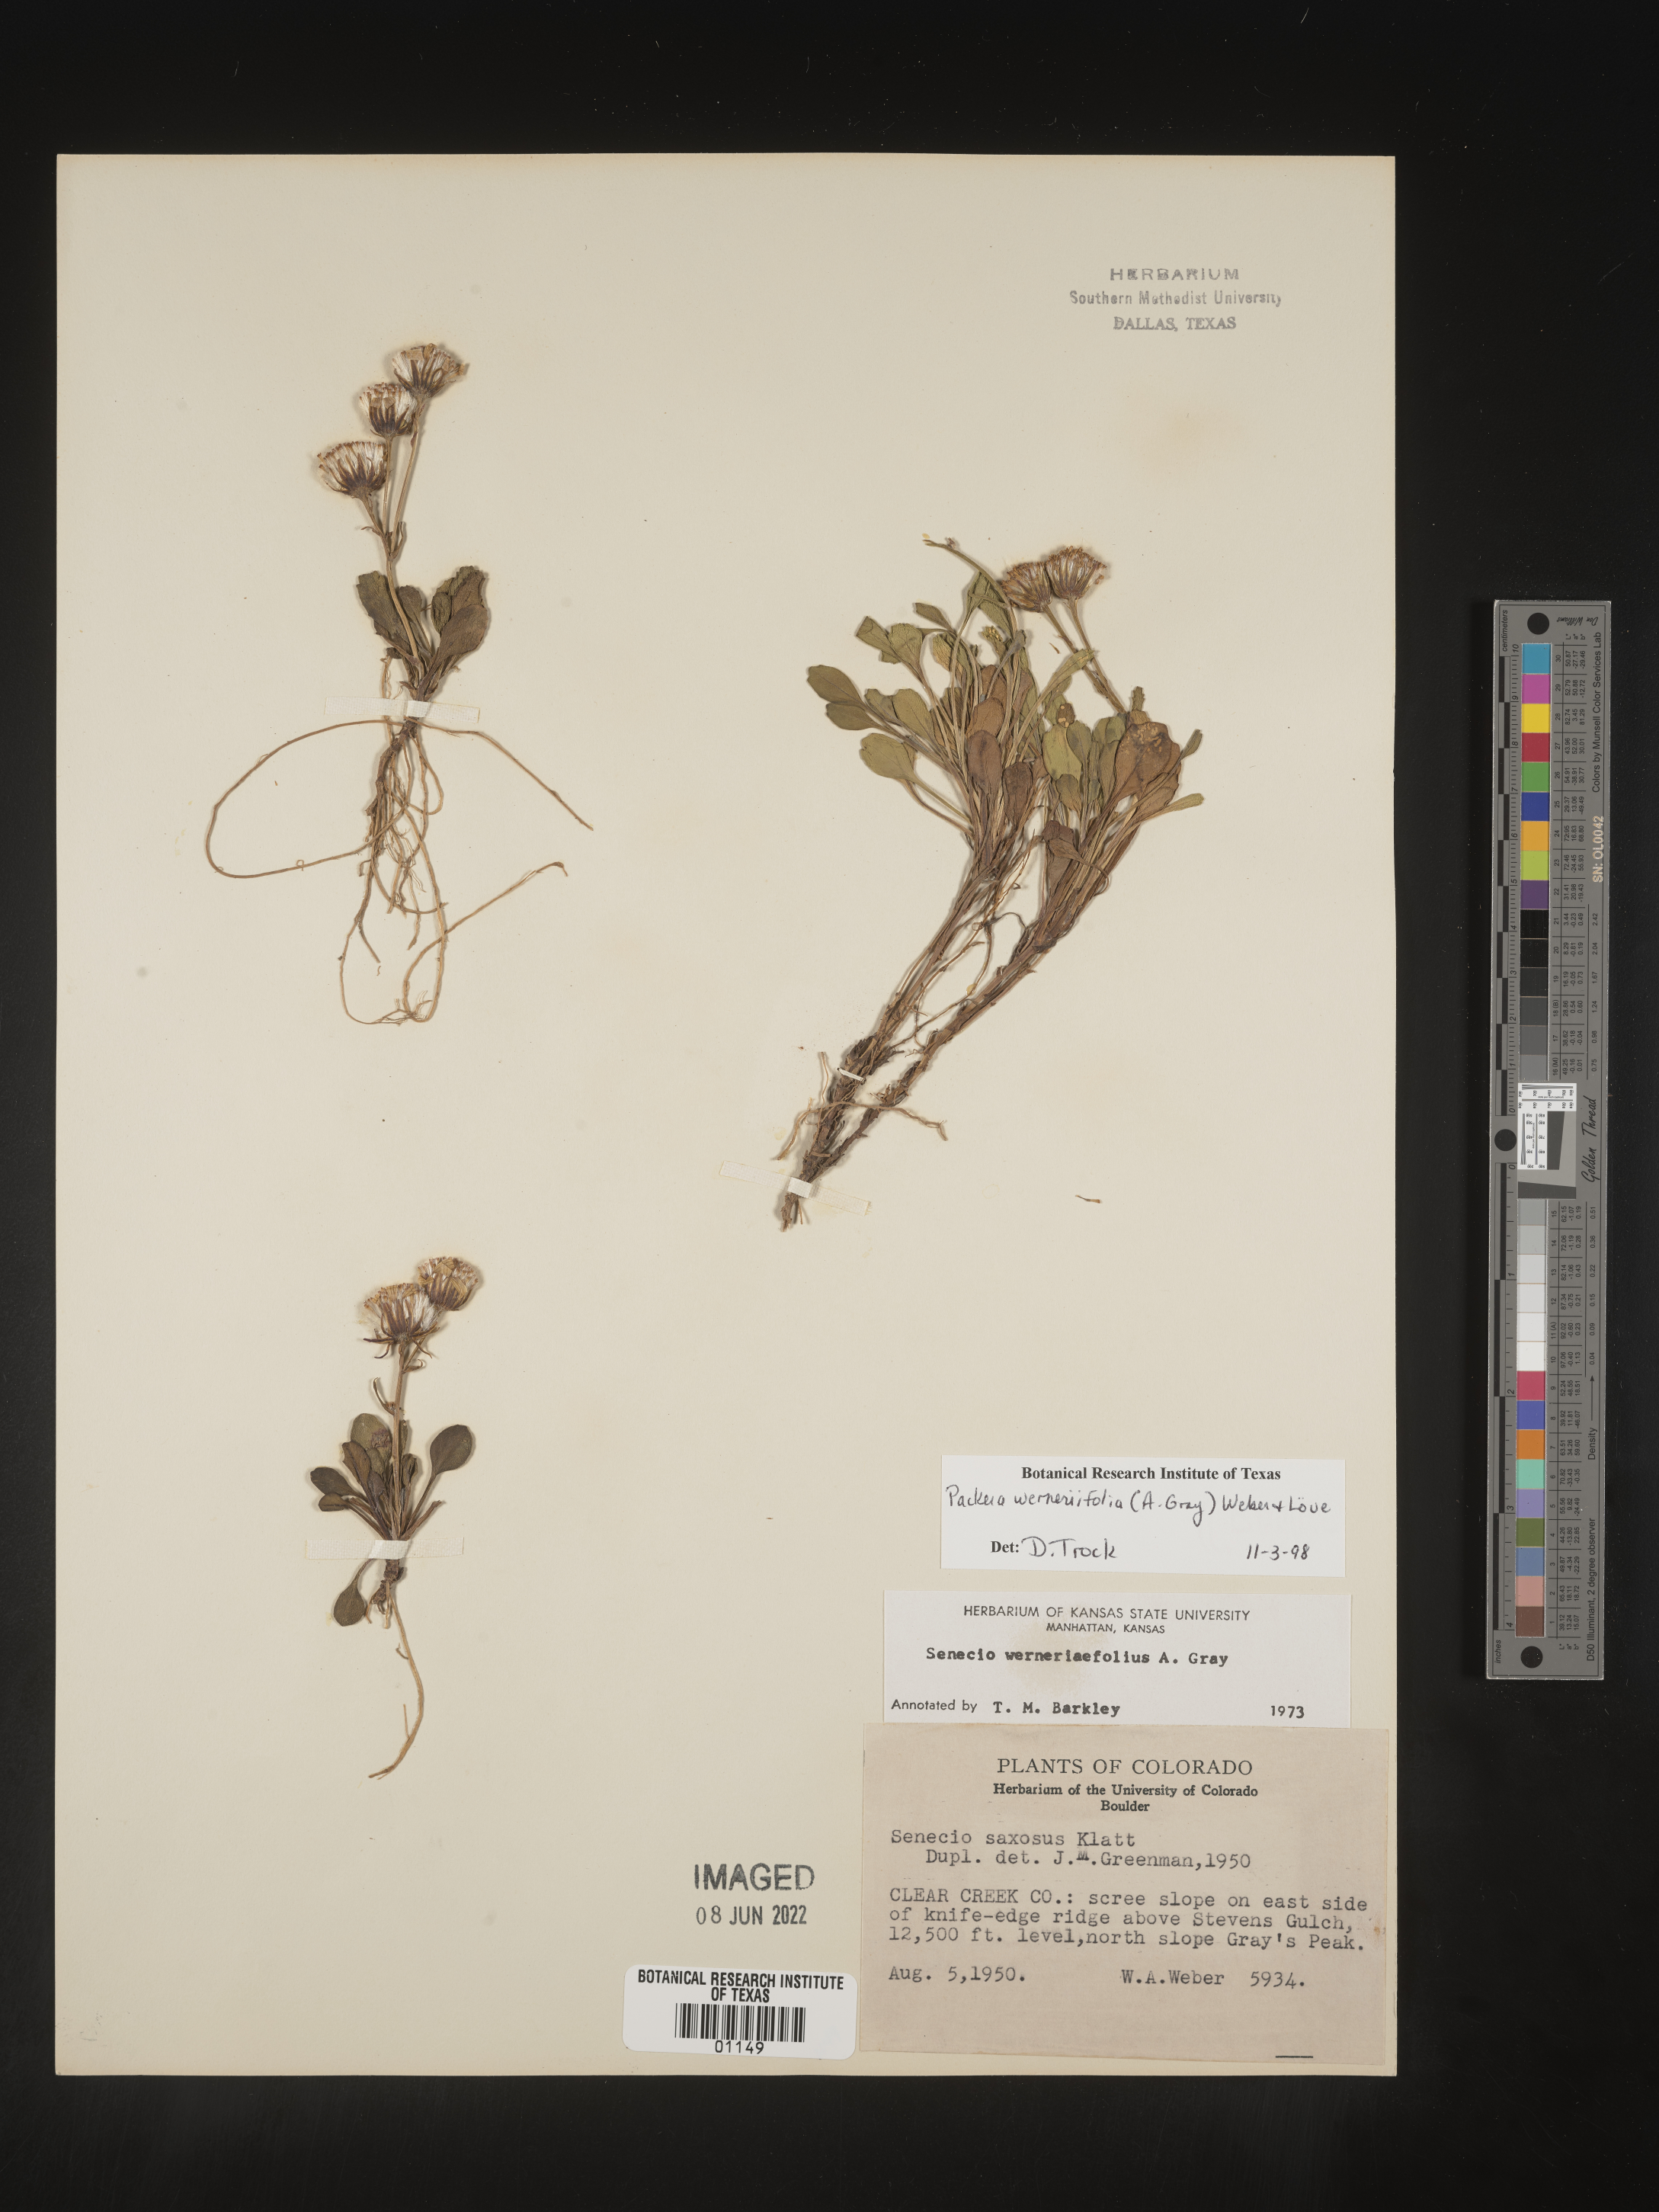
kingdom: Plantae
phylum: Tracheophyta
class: Magnoliopsida
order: Asterales
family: Asteraceae
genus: Packera
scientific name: Packera werneriifolia
